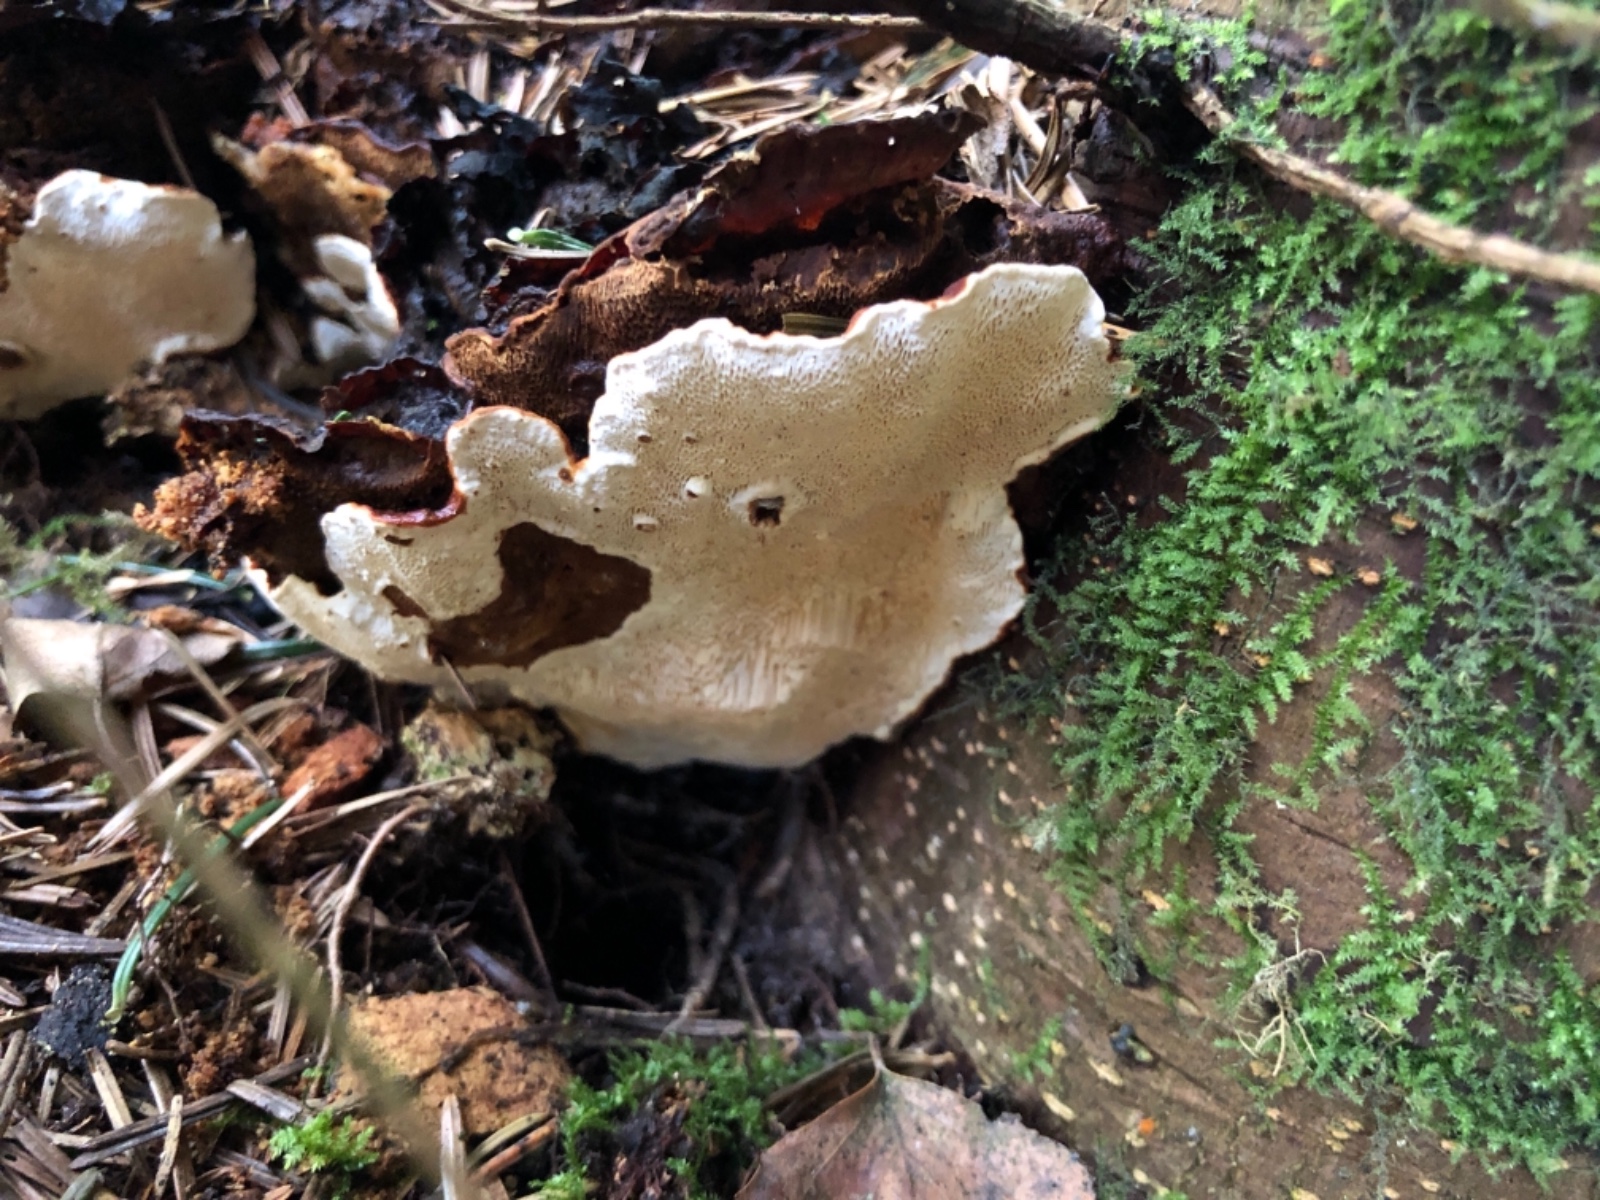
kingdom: Fungi
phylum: Basidiomycota
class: Agaricomycetes
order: Russulales
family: Bondarzewiaceae
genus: Heterobasidion
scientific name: Heterobasidion annosum
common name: almindelig rodfordærver
